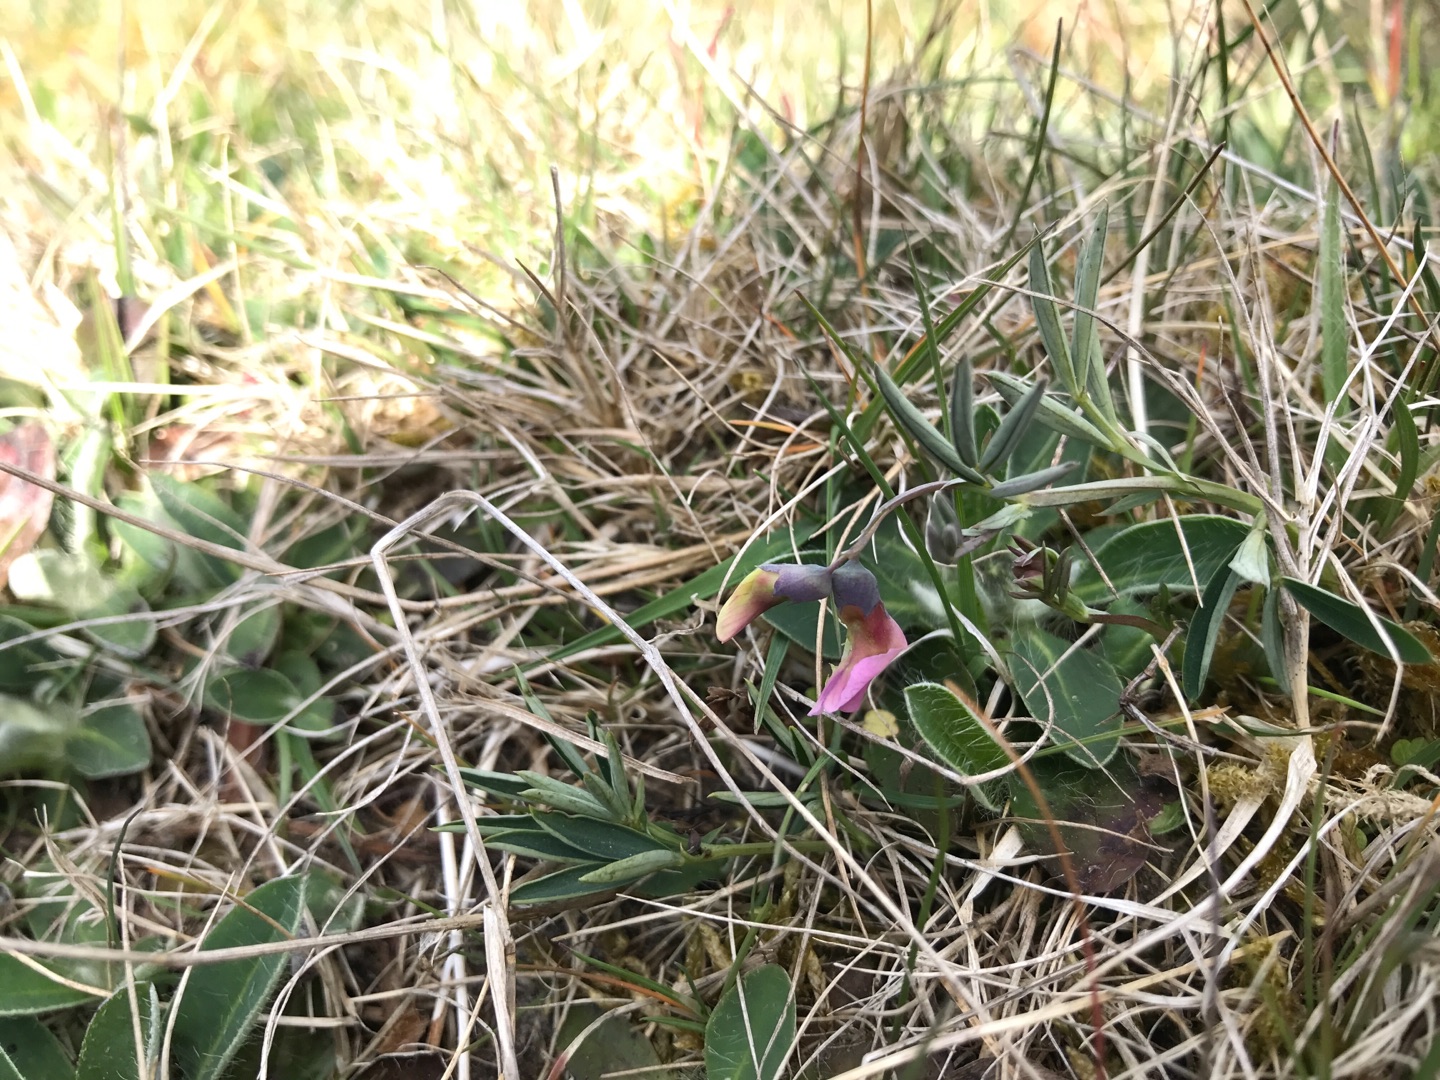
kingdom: Plantae
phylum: Tracheophyta
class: Magnoliopsida
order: Fabales
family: Fabaceae
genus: Lathyrus
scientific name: Lathyrus linifolius
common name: Krat-fladbælg
